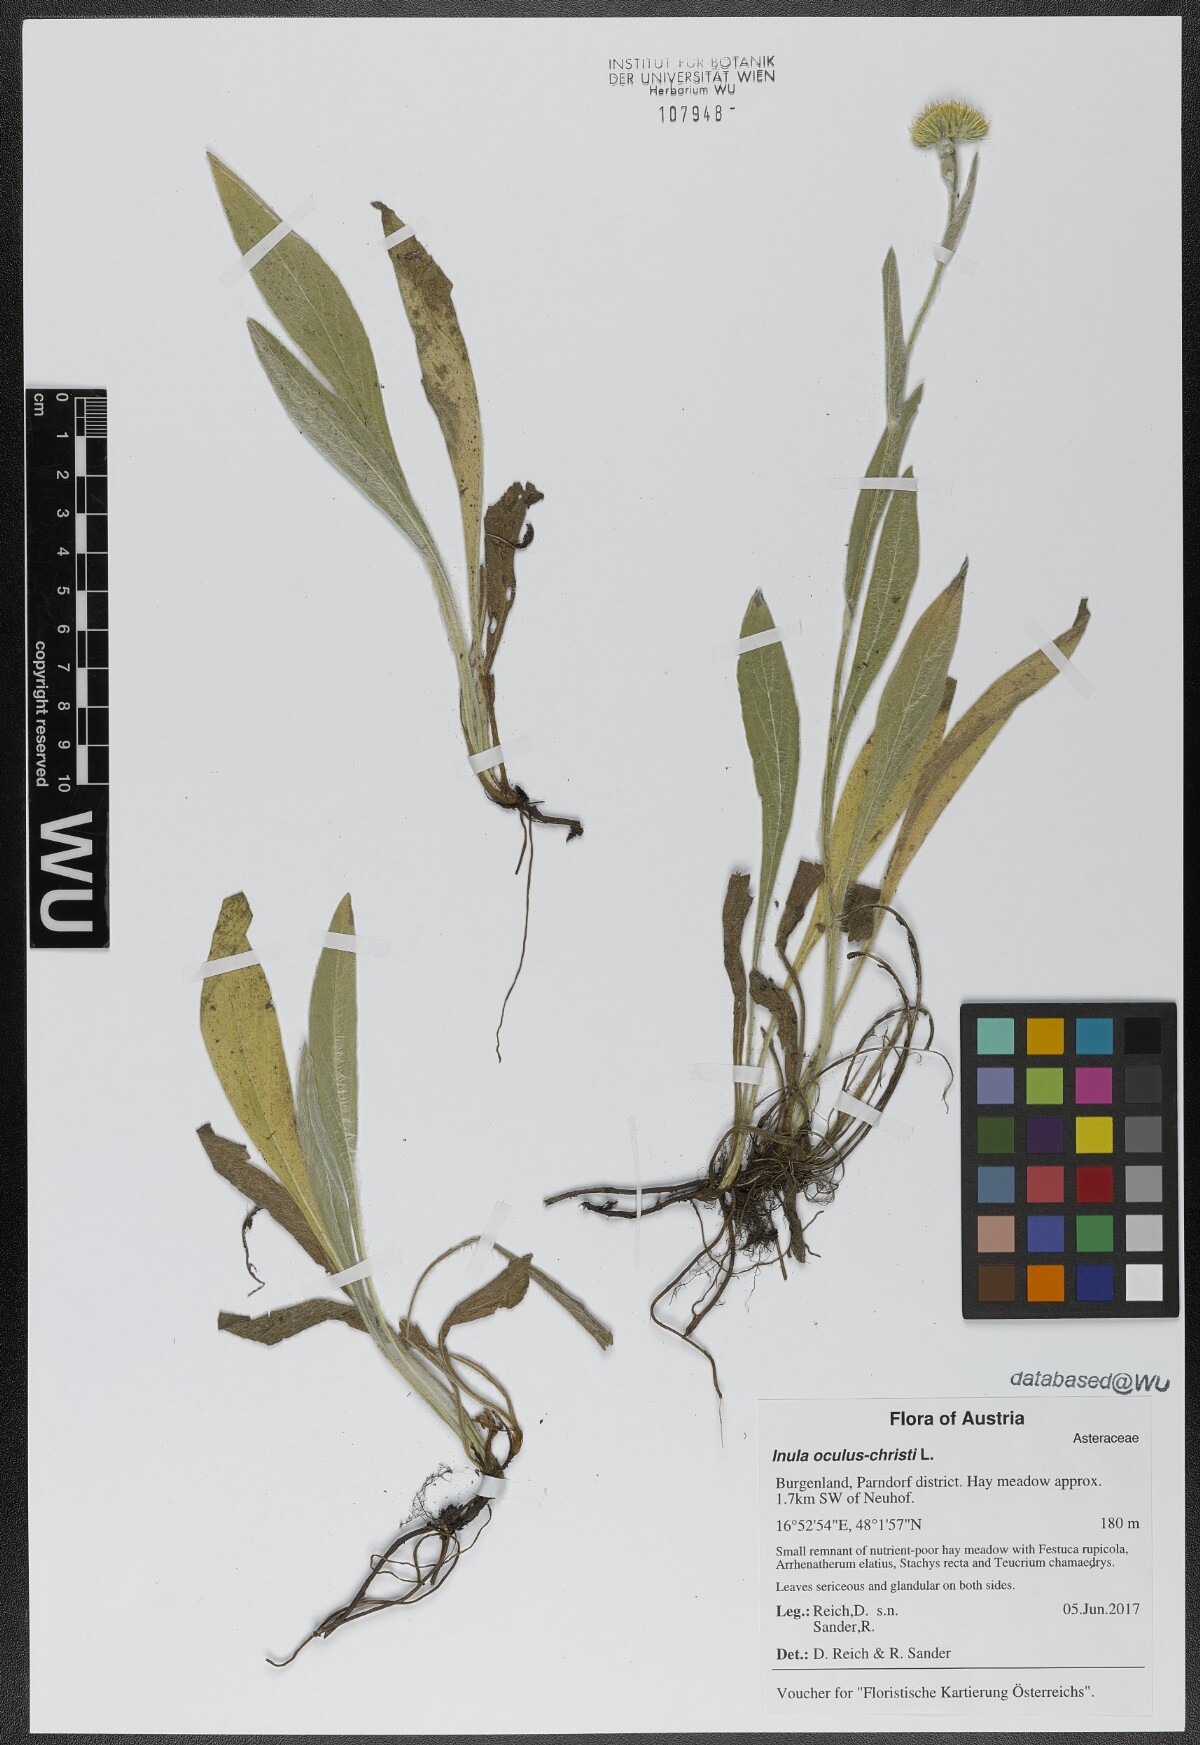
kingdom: Plantae
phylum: Tracheophyta
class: Magnoliopsida
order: Asterales
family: Asteraceae
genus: Pentanema
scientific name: Pentanema oculus-christi
